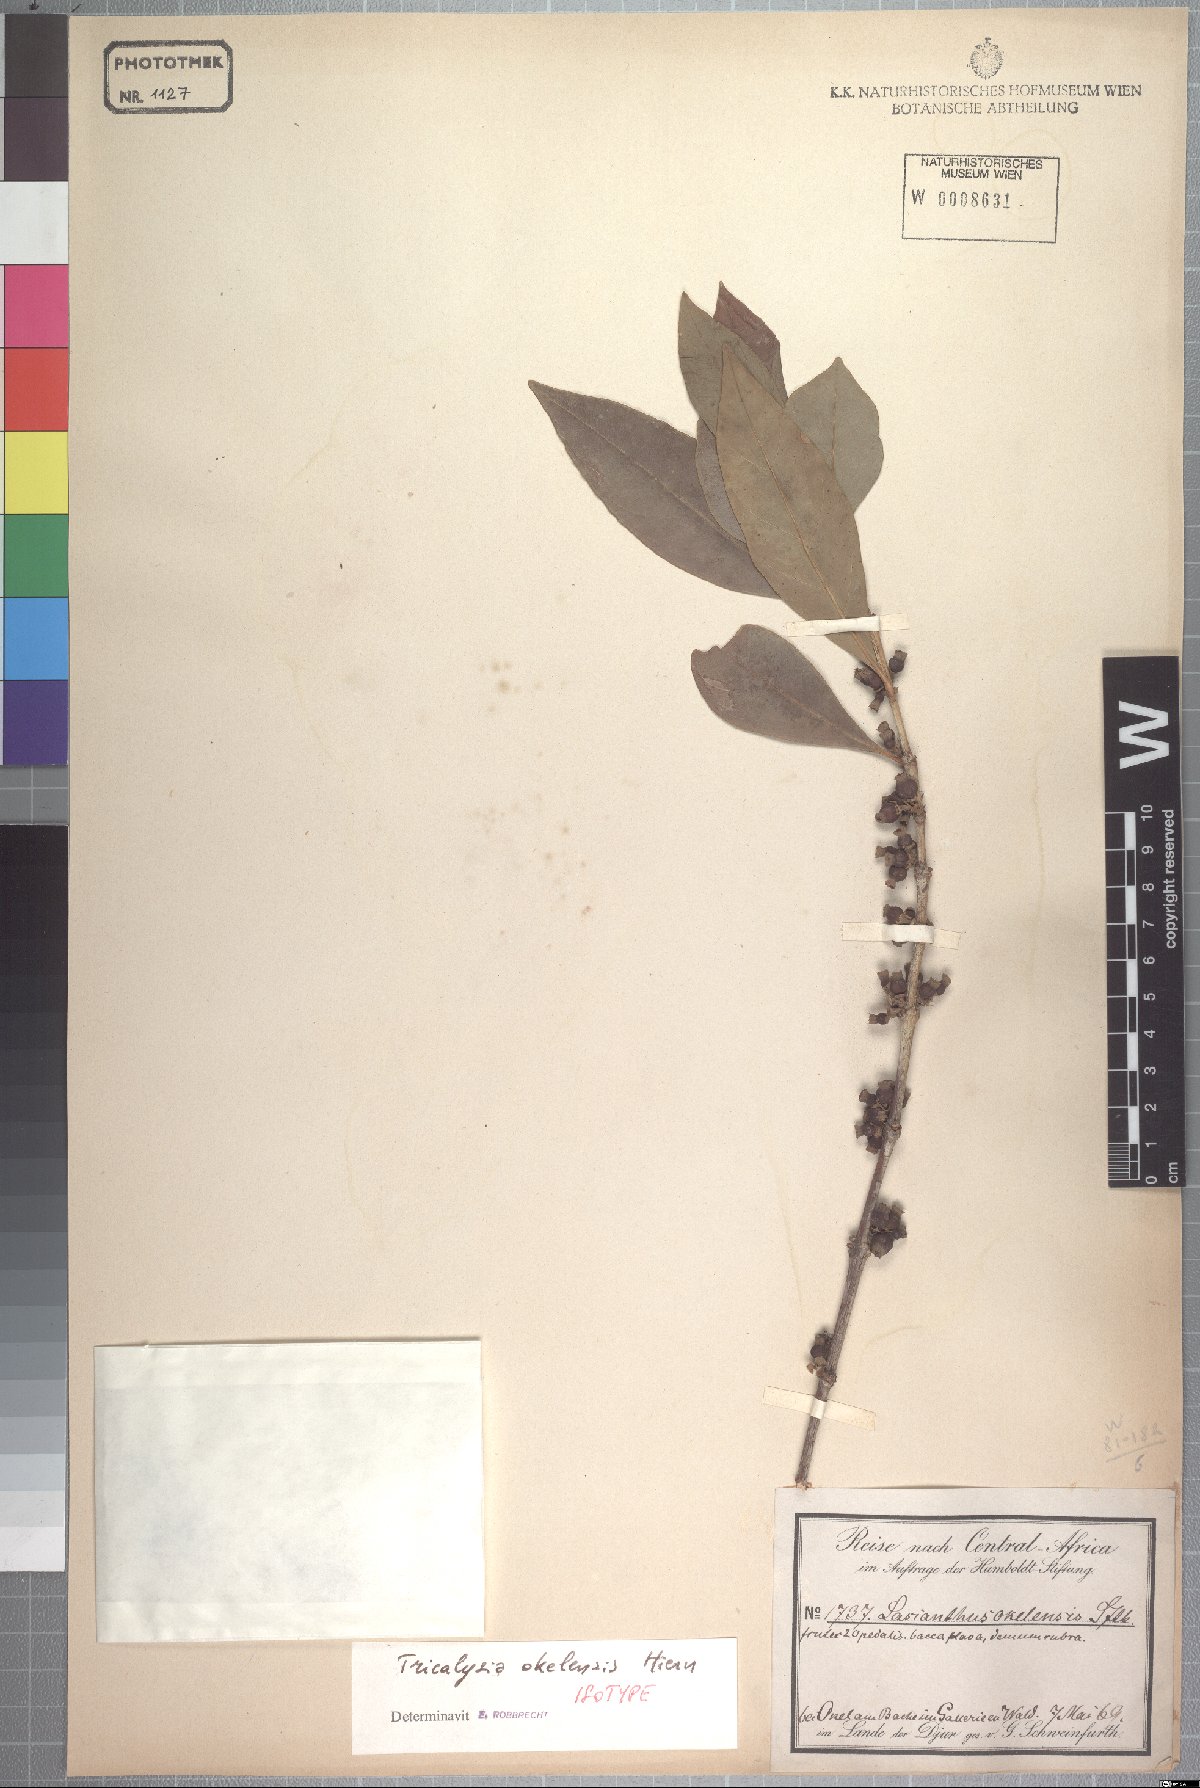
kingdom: Plantae
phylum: Tracheophyta
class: Magnoliopsida
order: Gentianales
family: Rubiaceae
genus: Tricalysia
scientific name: Tricalysia okelensis
